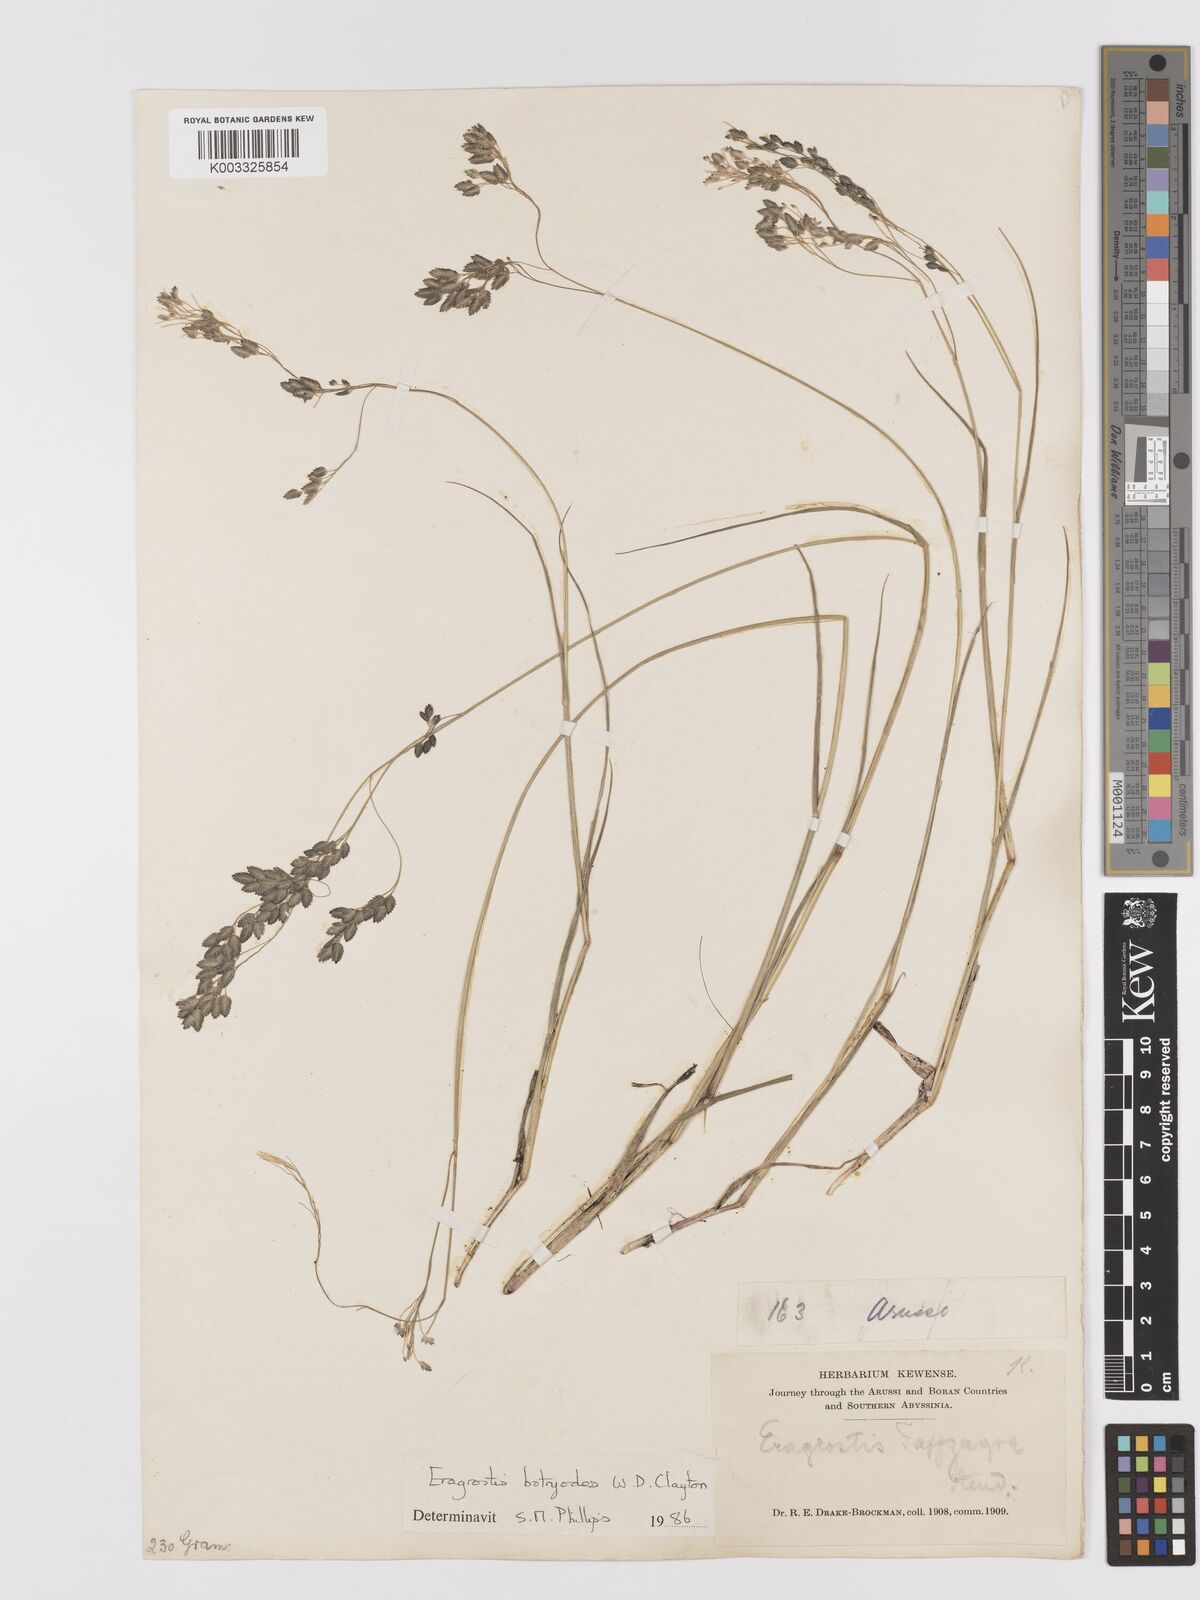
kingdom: Plantae
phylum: Tracheophyta
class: Liliopsida
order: Poales
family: Poaceae
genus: Eragrostis
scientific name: Eragrostis botryodes
